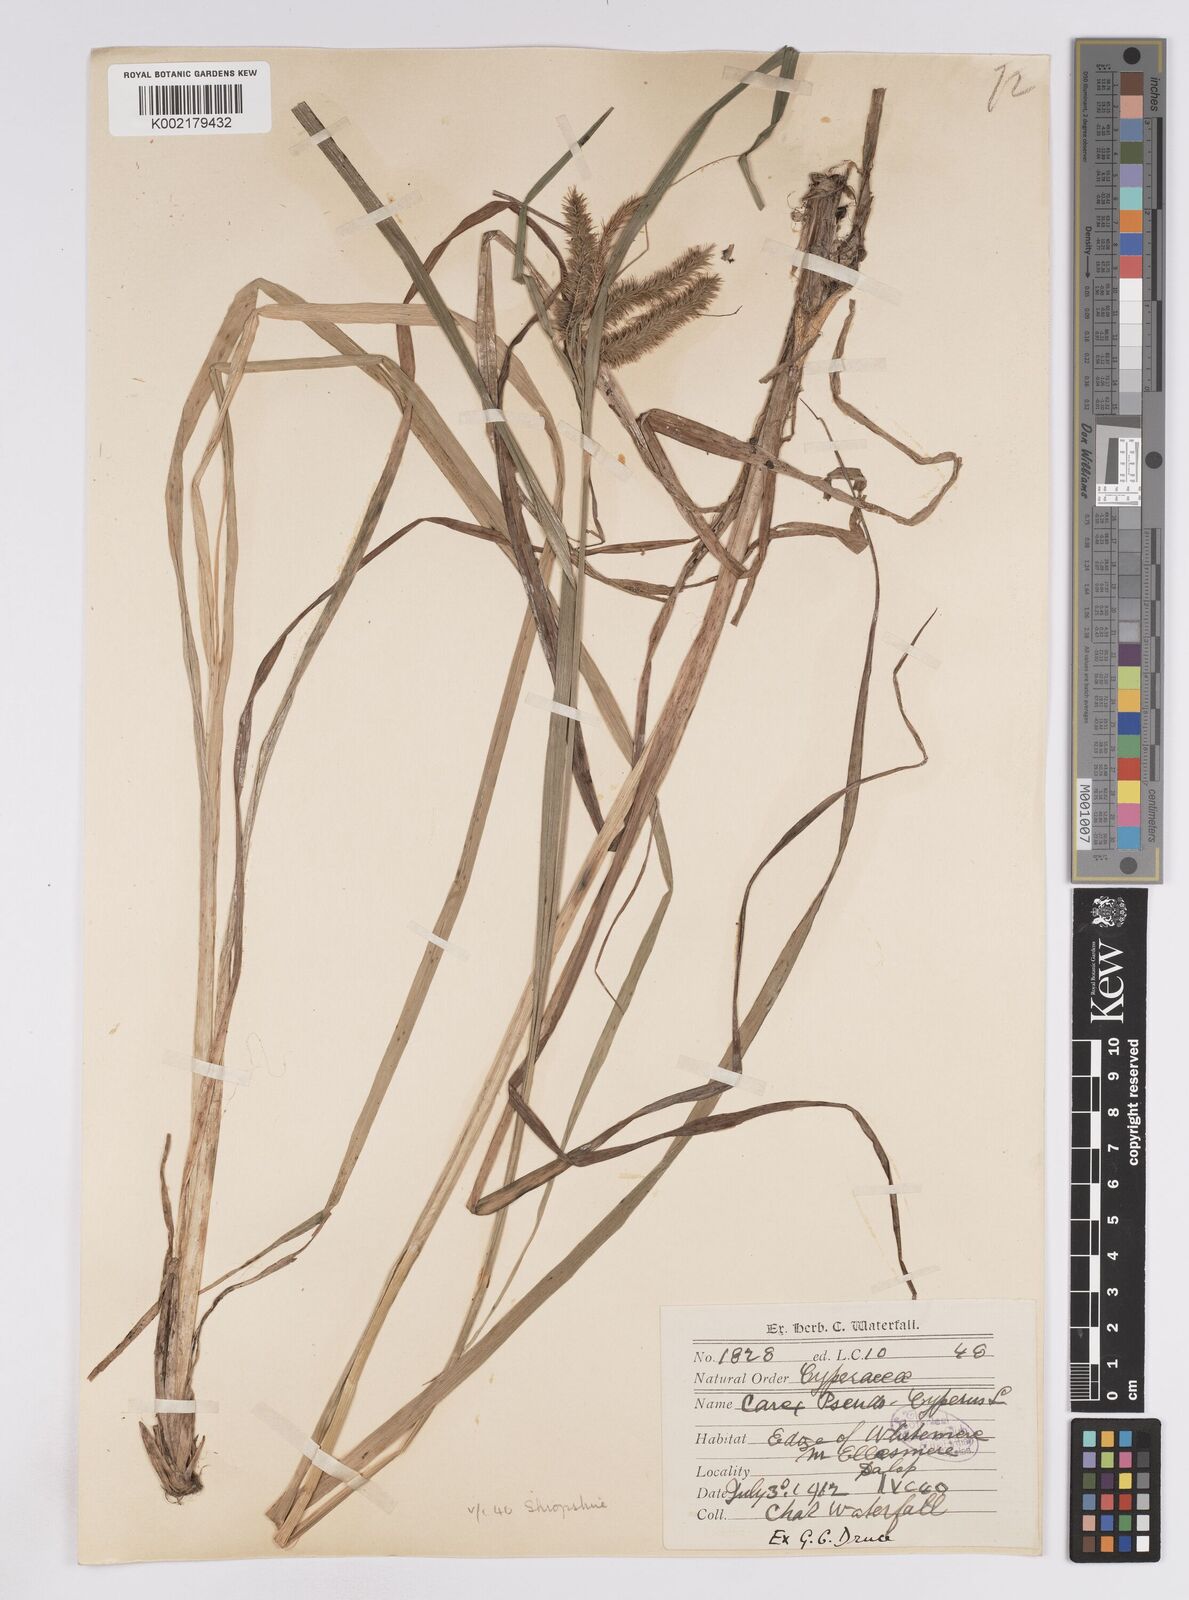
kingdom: Plantae
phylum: Tracheophyta
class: Liliopsida
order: Poales
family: Cyperaceae
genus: Carex
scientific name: Carex pseudocyperus
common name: Cyperus sedge
